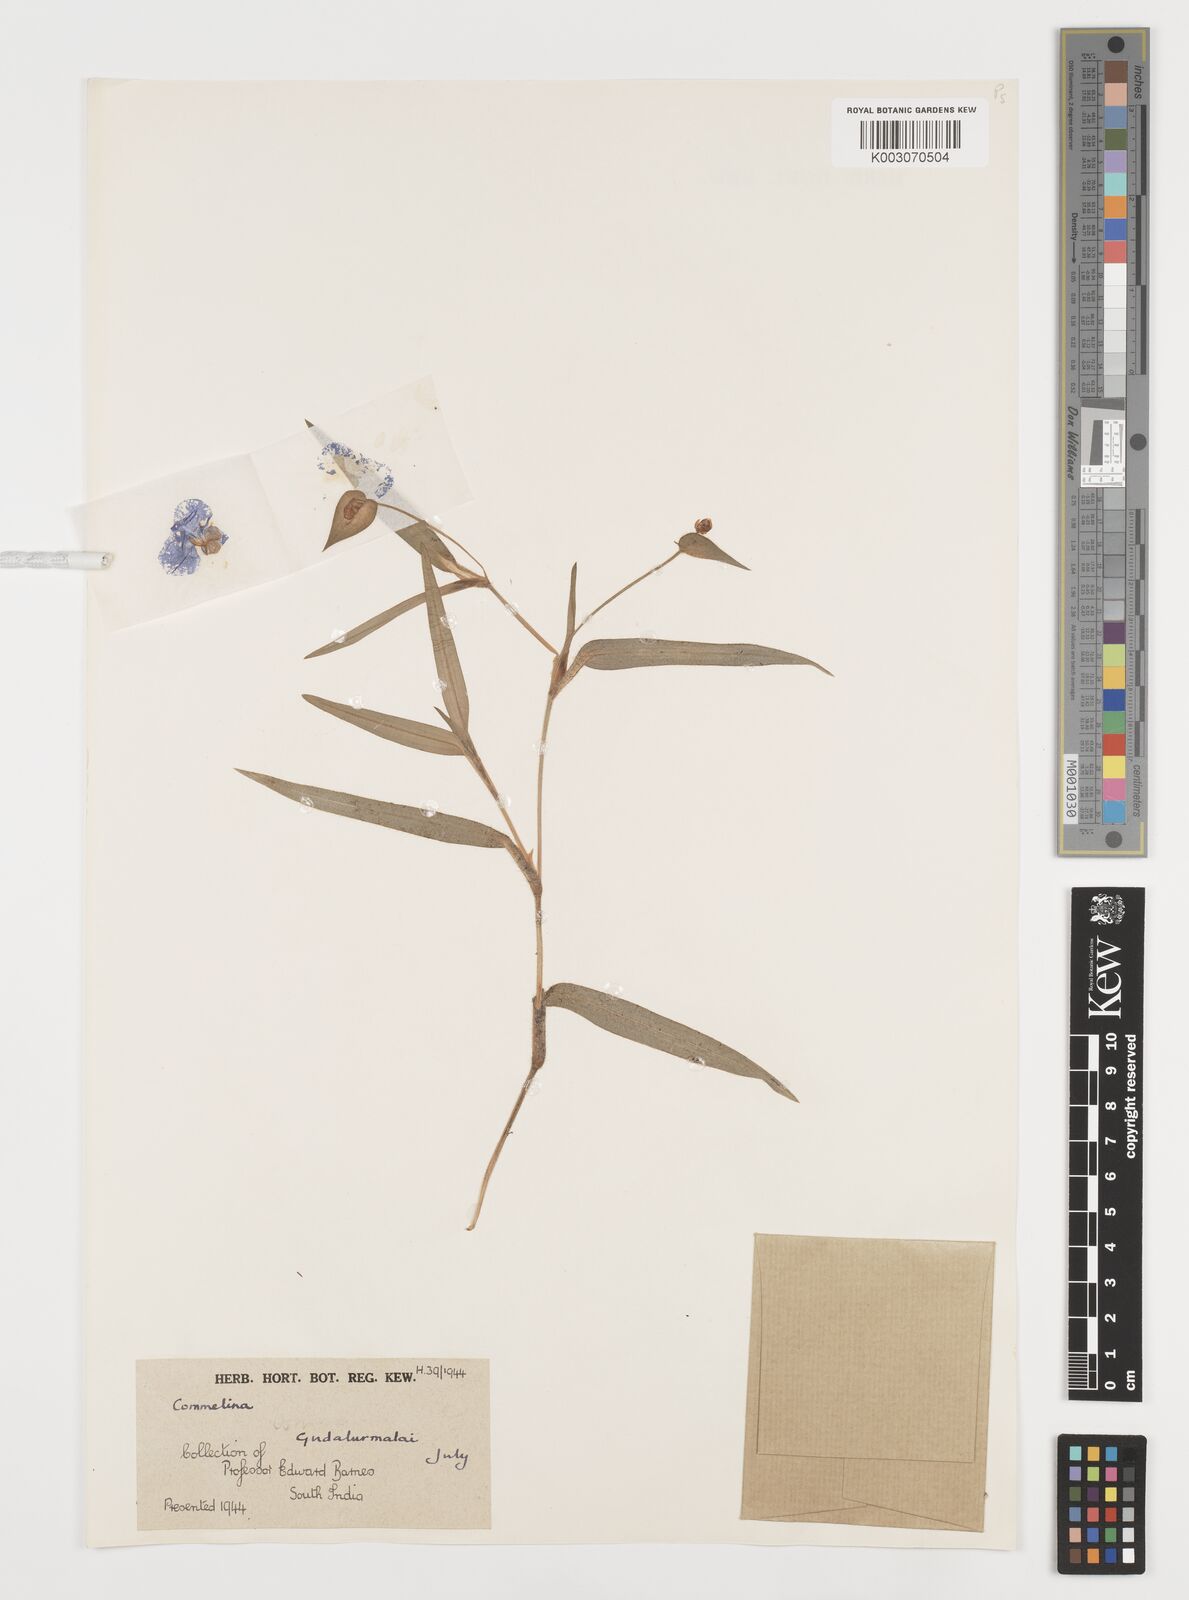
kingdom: Plantae
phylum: Tracheophyta
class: Liliopsida
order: Commelinales
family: Commelinaceae
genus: Commelina
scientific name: Commelina
